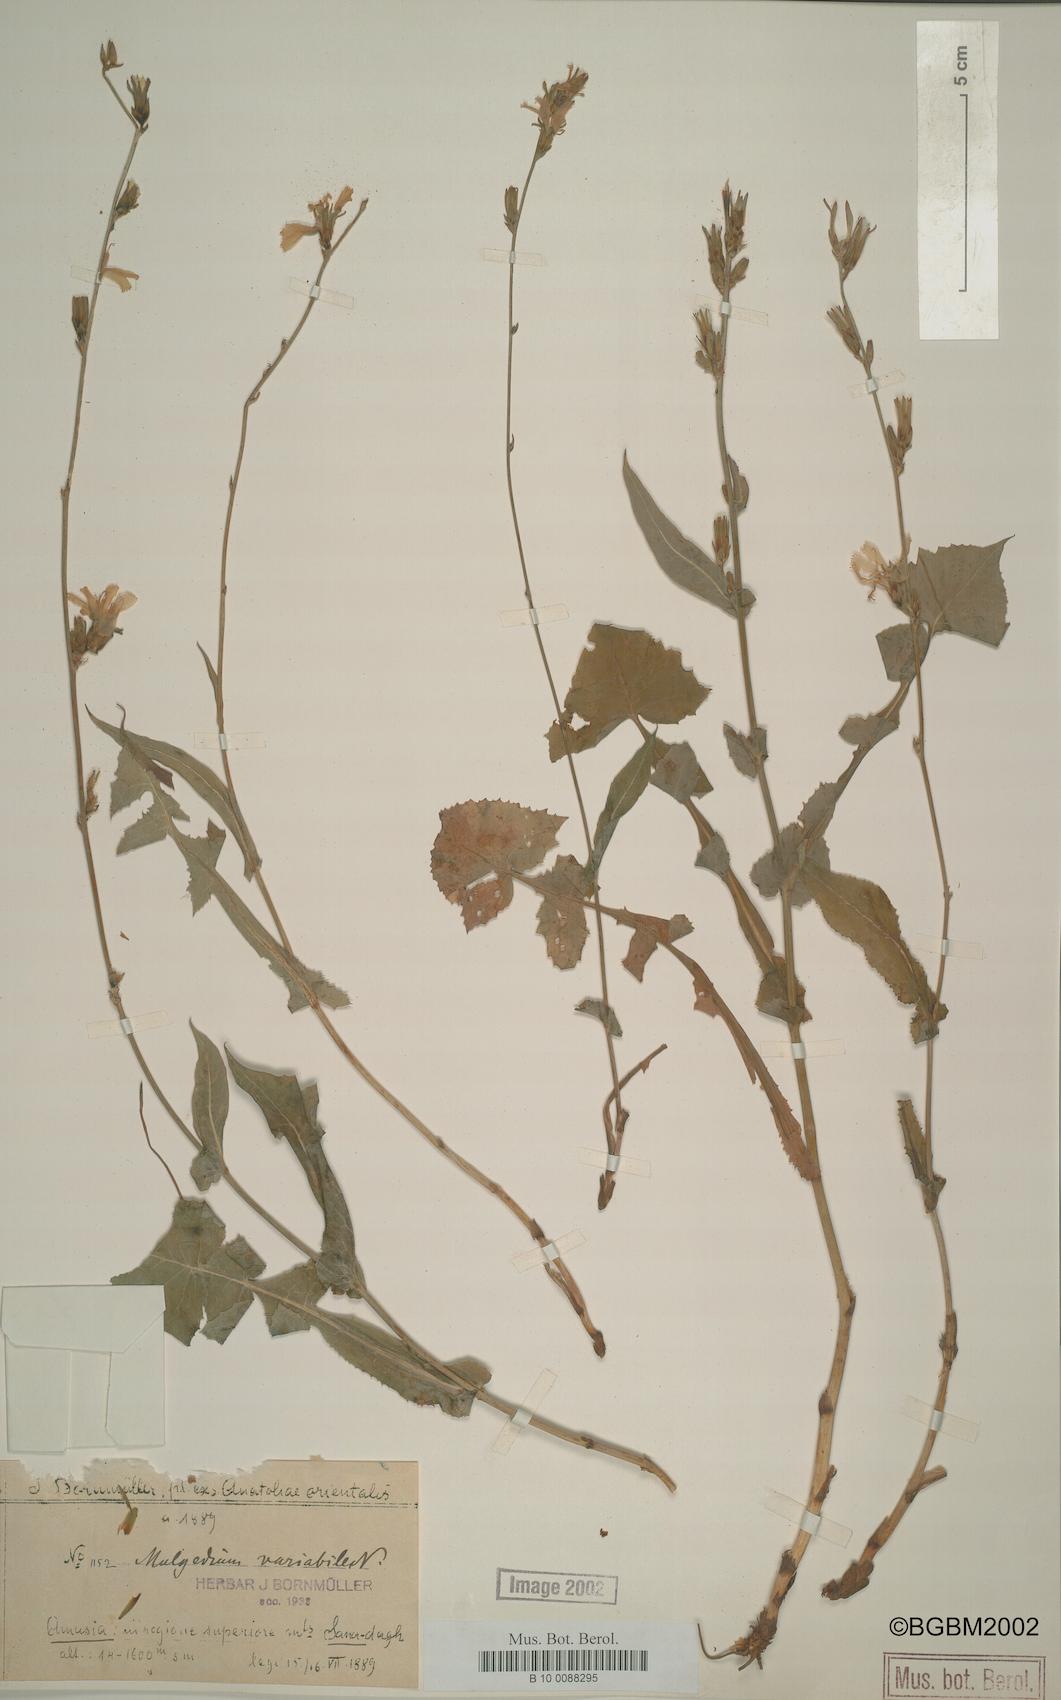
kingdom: Plantae
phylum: Tracheophyta
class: Magnoliopsida
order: Asterales
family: Asteraceae
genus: Lactuca
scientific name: Lactuca variabilis
